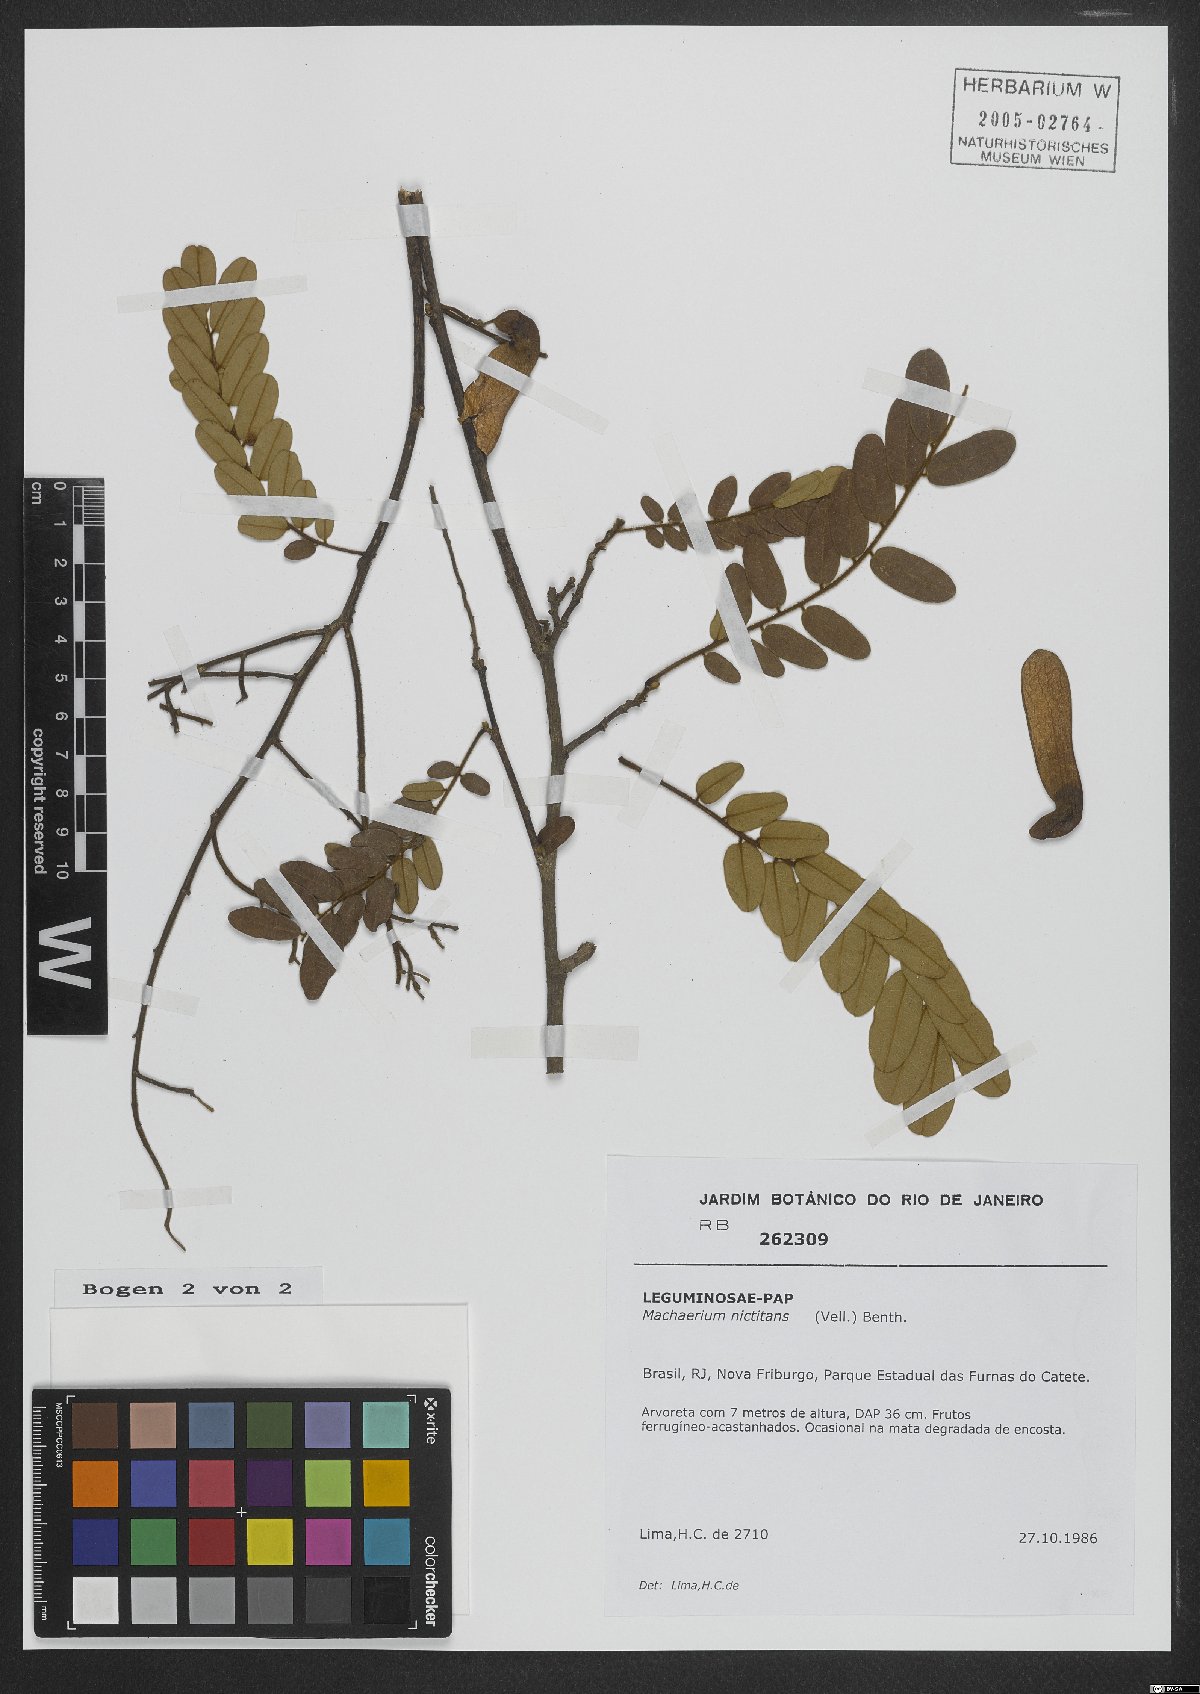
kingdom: Plantae
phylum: Tracheophyta
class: Magnoliopsida
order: Fabales
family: Fabaceae
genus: Machaerium
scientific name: Machaerium nyctitans
